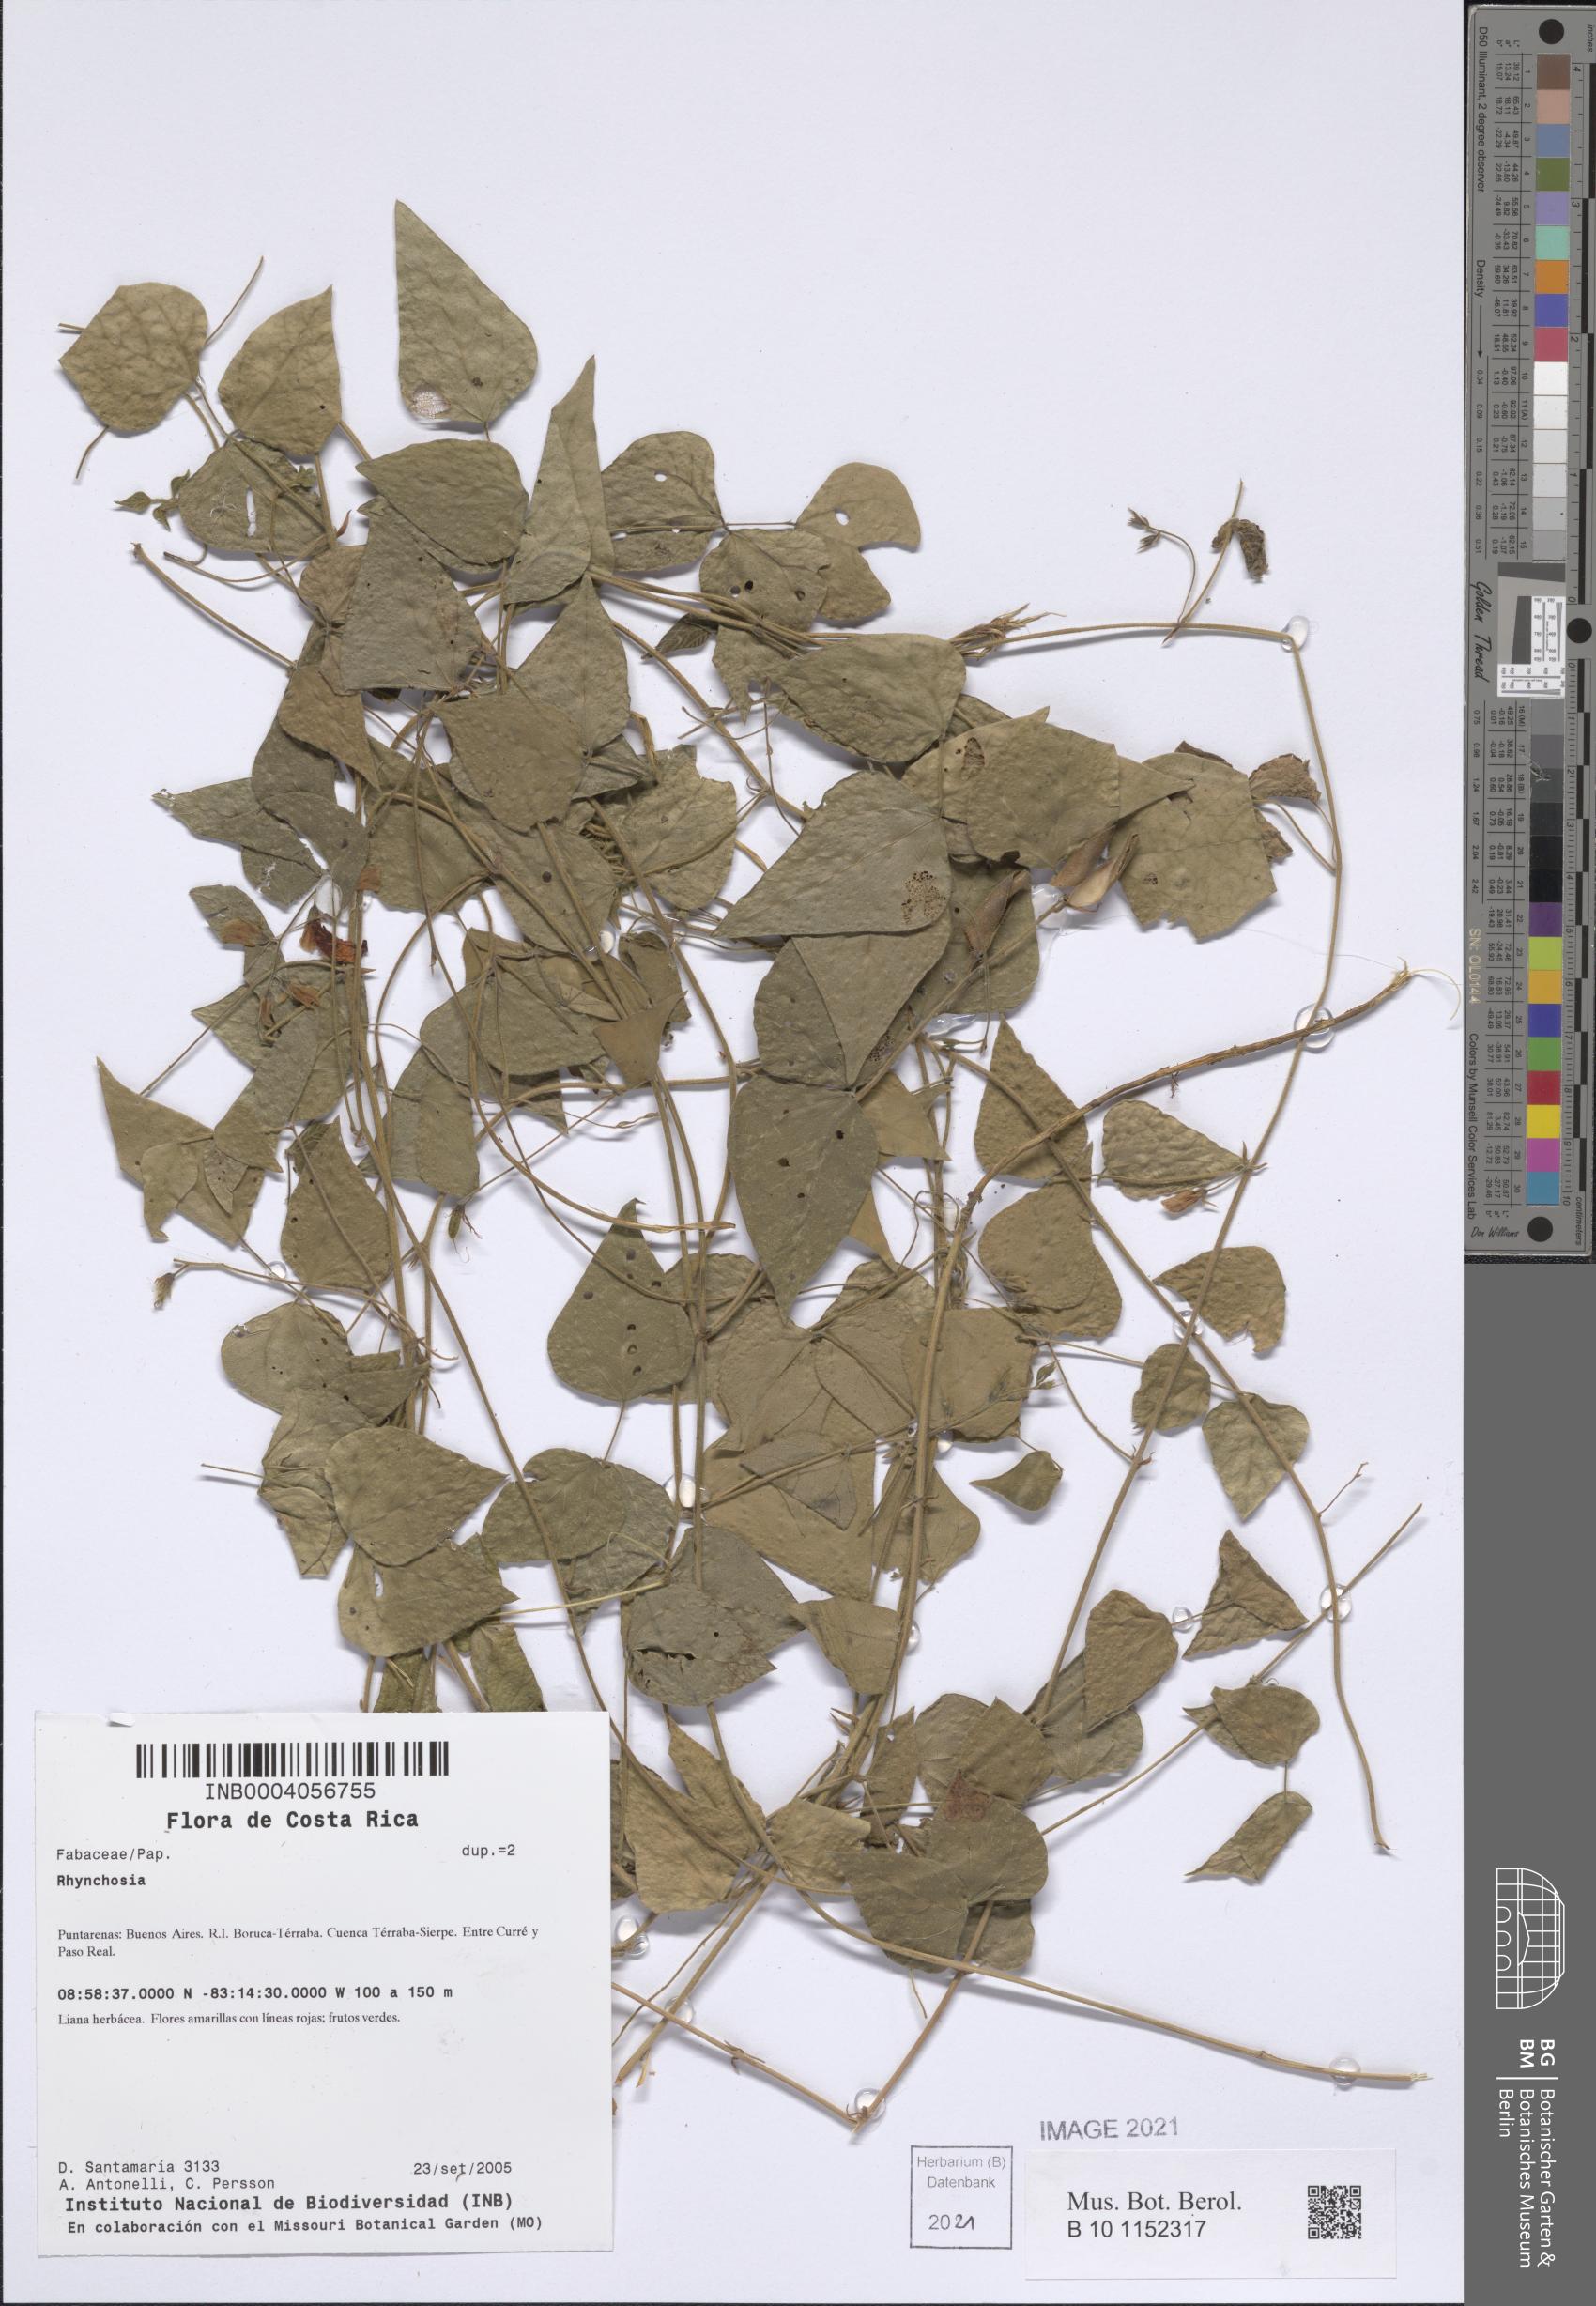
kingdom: Plantae
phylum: Tracheophyta
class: Magnoliopsida
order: Fabales
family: Fabaceae
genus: Rhynchosia
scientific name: Rhynchosia
